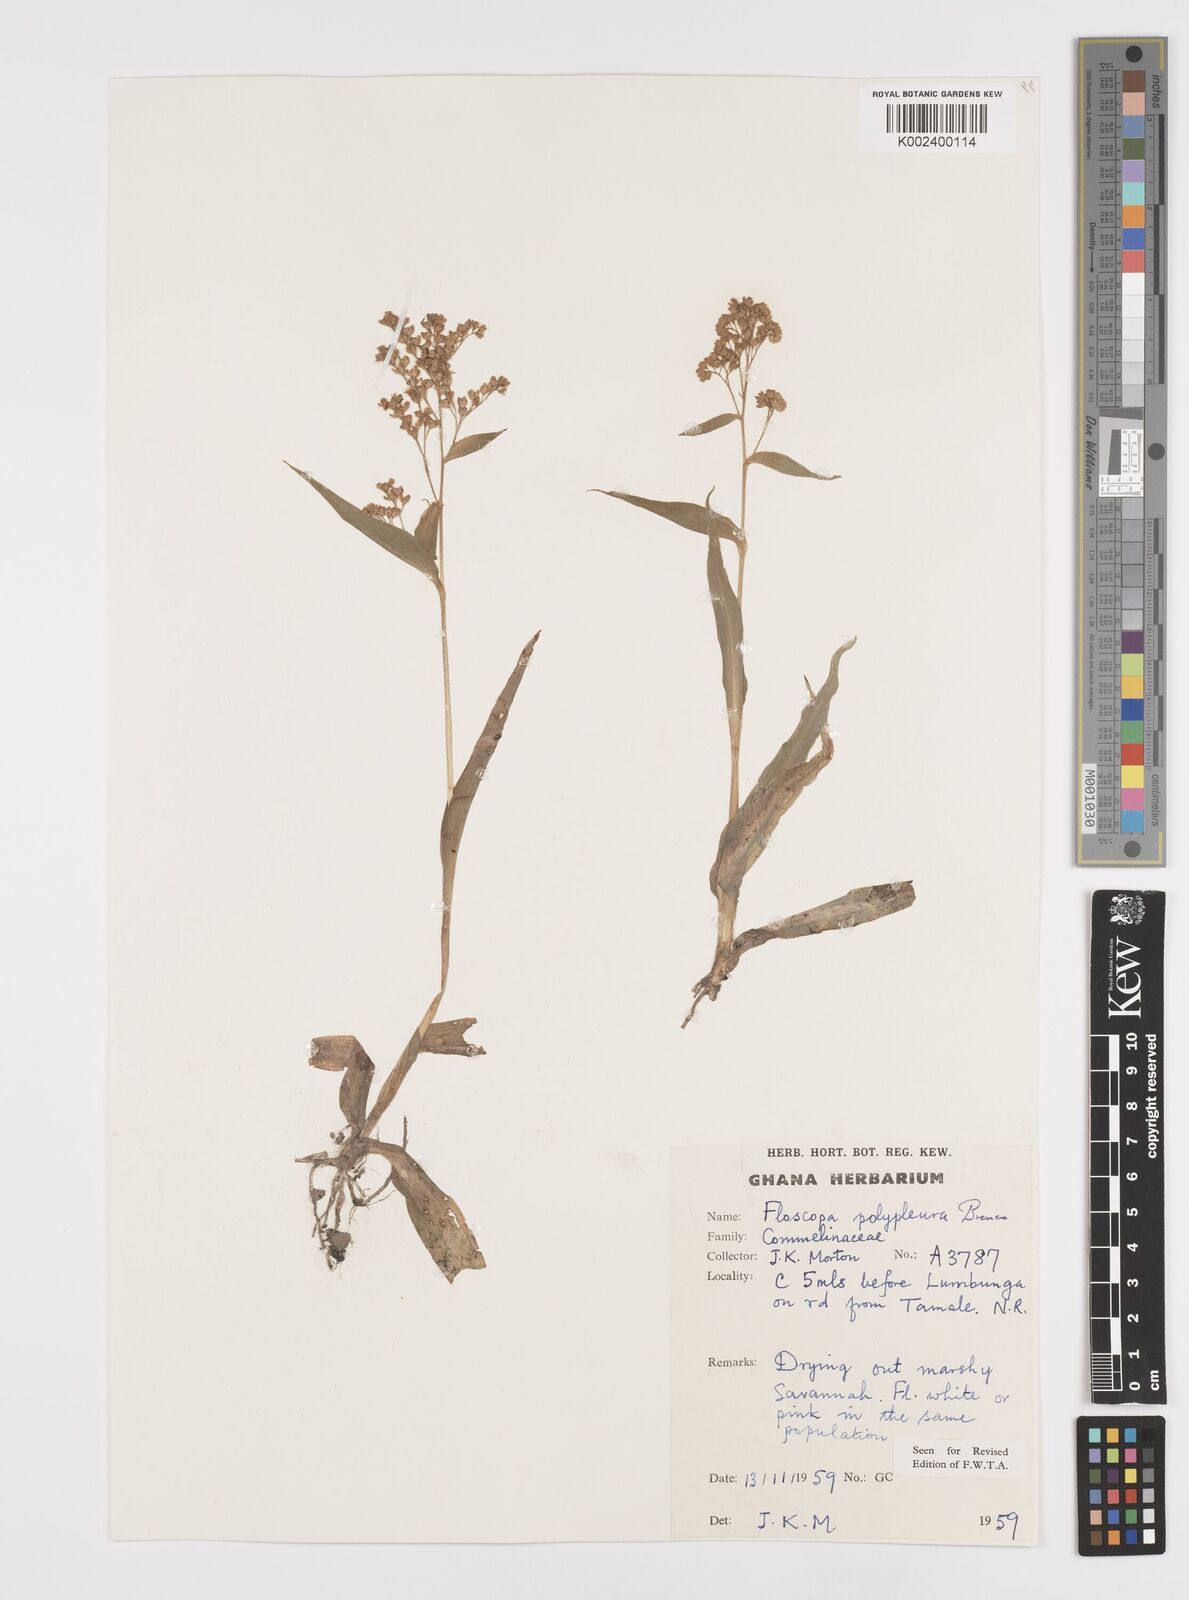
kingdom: Plantae
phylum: Tracheophyta
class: Liliopsida
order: Commelinales
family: Commelinaceae
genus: Floscopa
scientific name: Floscopa polypleura
